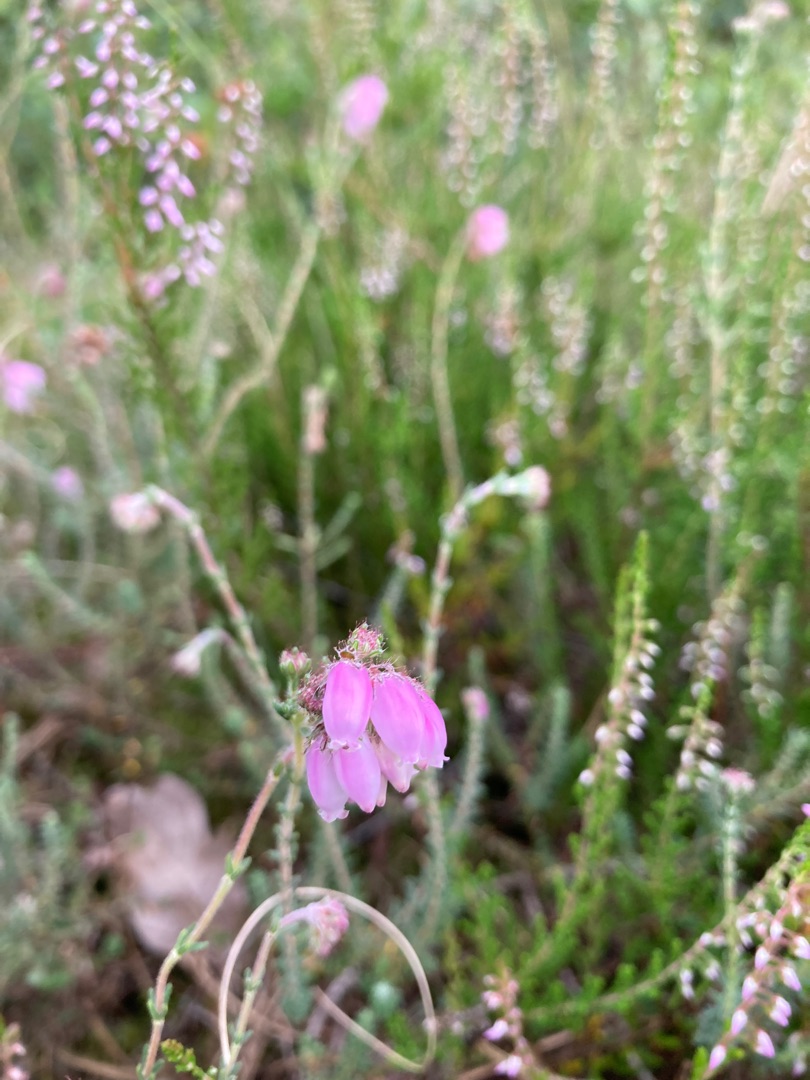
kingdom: Plantae
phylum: Tracheophyta
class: Magnoliopsida
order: Ericales
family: Ericaceae
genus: Erica
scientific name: Erica tetralix
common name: Klokkelyng
